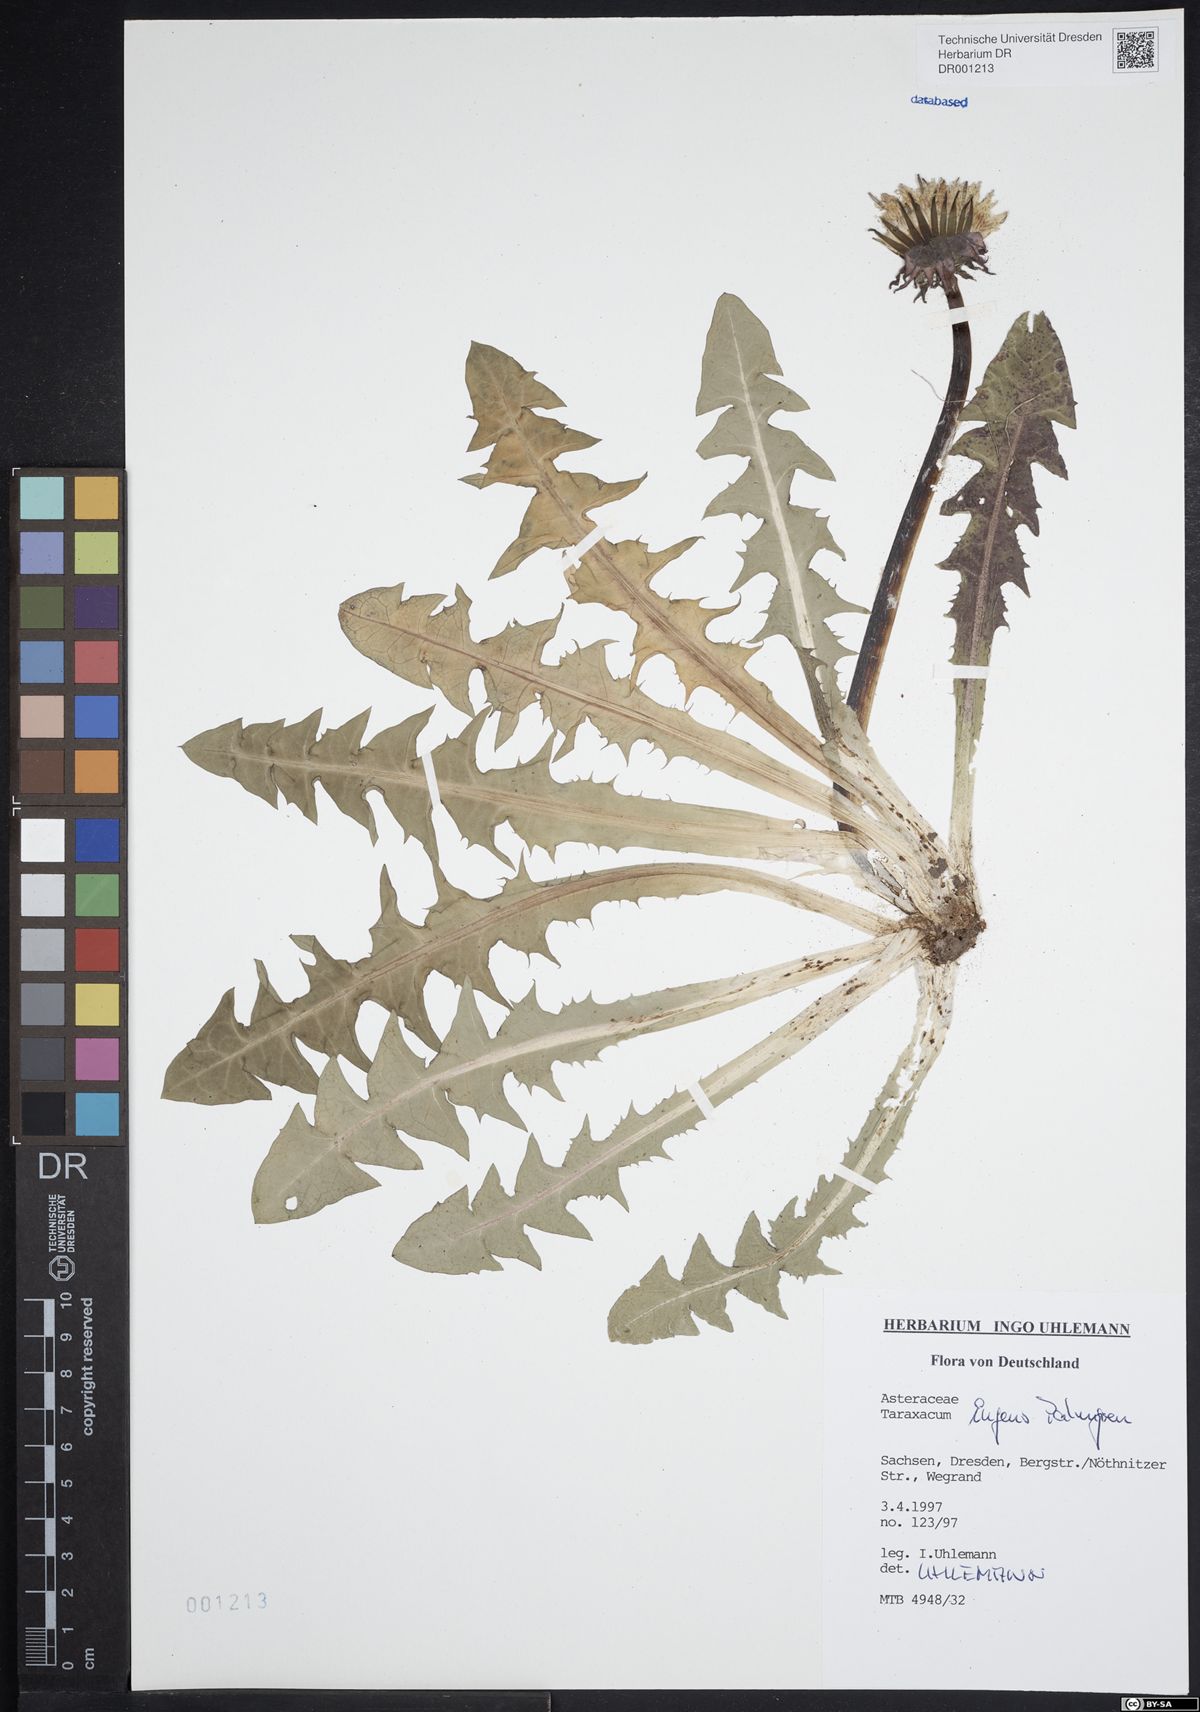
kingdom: Plantae
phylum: Tracheophyta
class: Magnoliopsida
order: Asterales
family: Asteraceae
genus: Taraxacum
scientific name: Taraxacum ingens
